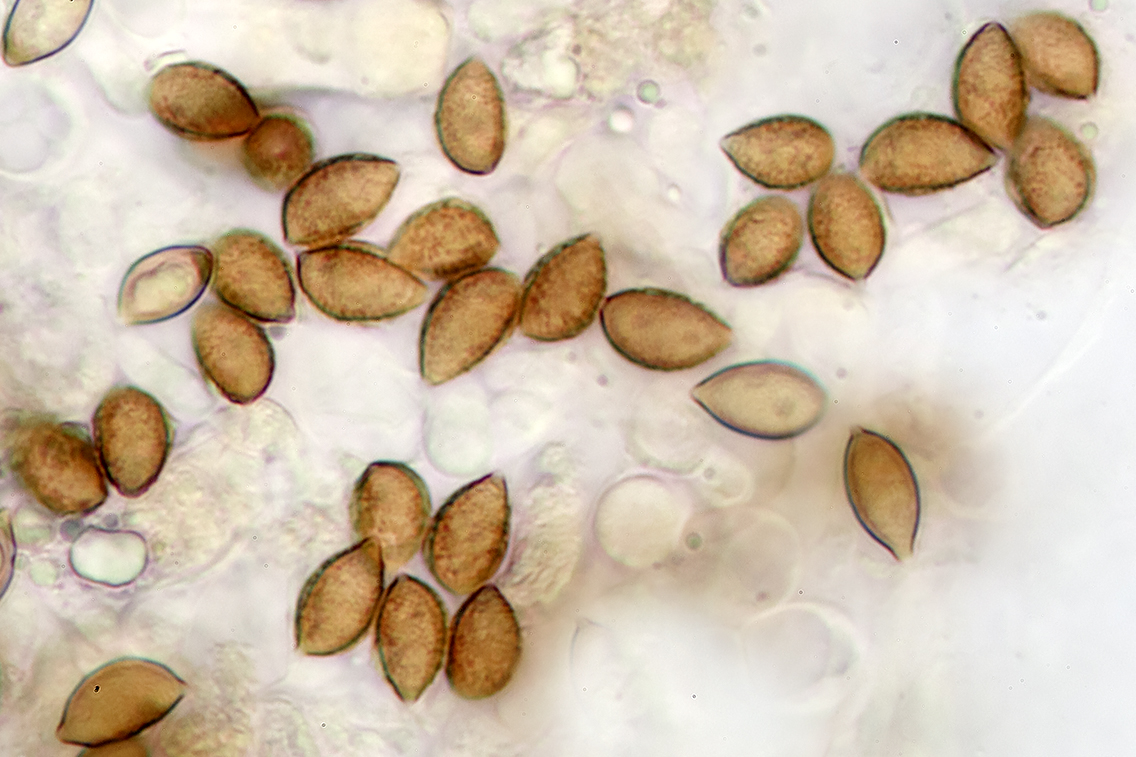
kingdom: Fungi
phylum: Basidiomycota
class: Agaricomycetes
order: Agaricales
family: Hymenogastraceae
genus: Hebeloma
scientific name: Hebeloma nauseosum
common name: storsporet tåreblad
